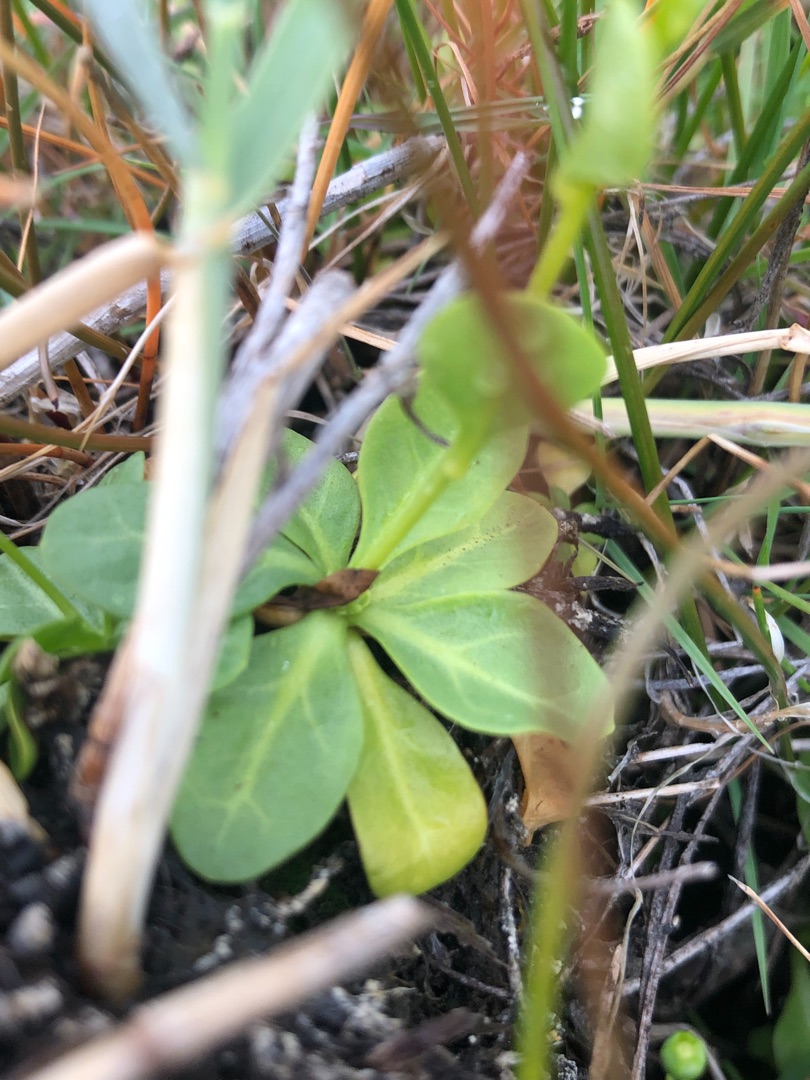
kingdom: Plantae
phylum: Tracheophyta
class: Magnoliopsida
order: Ericales
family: Primulaceae
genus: Samolus
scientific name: Samolus valerandi
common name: Samel
